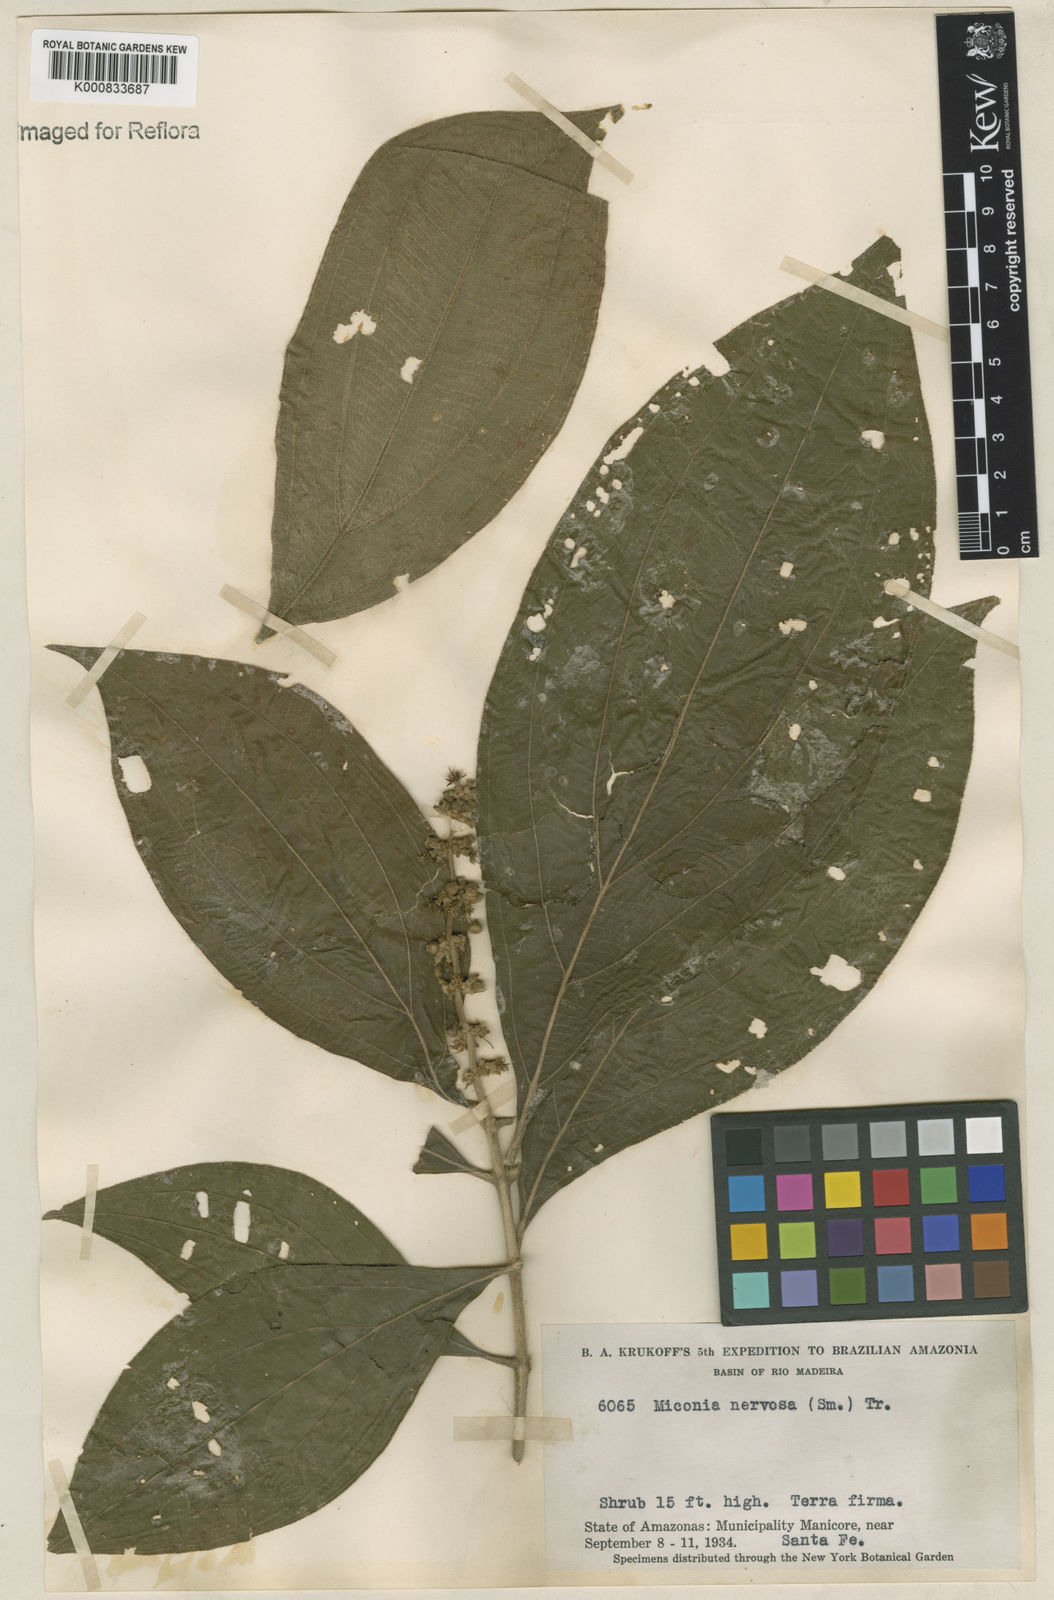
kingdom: Plantae
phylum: Tracheophyta
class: Magnoliopsida
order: Myrtales
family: Melastomataceae
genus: Miconia
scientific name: Miconia nervosa
